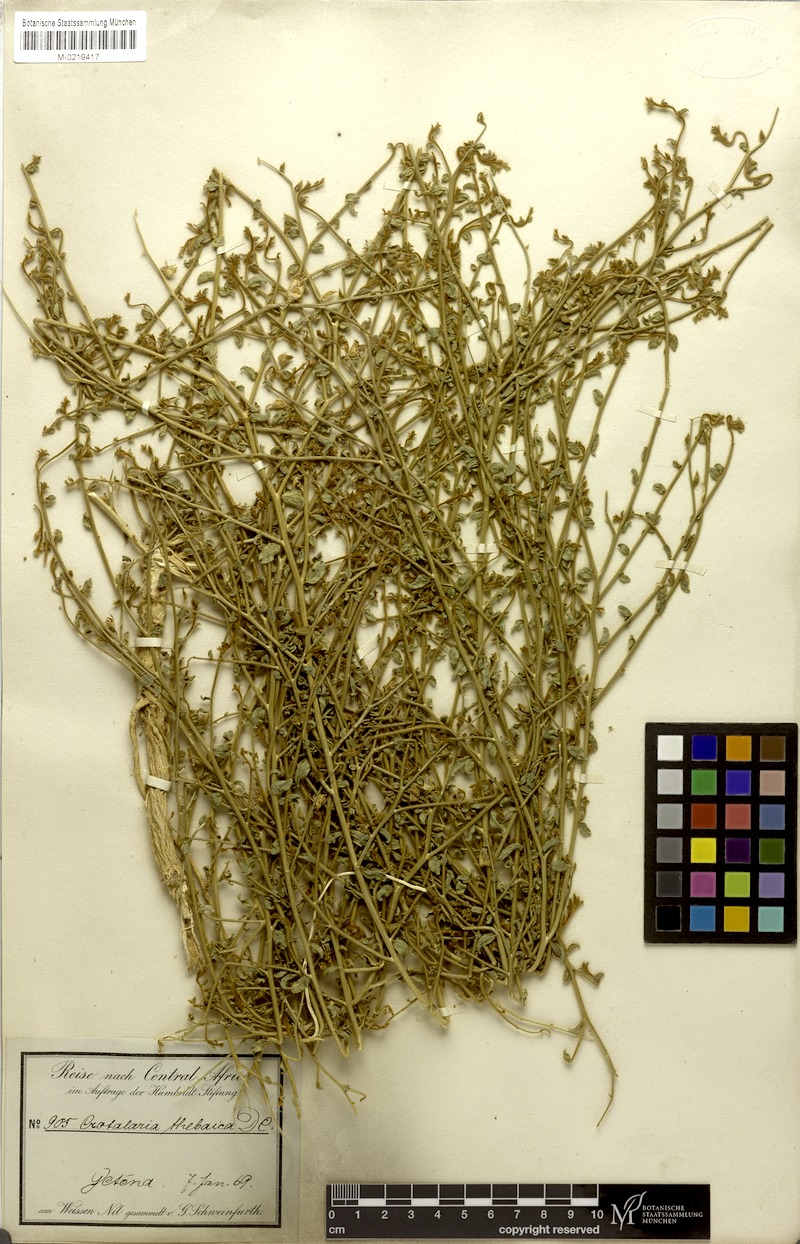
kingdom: Plantae
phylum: Tracheophyta
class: Magnoliopsida
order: Fabales
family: Fabaceae
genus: Crotalaria
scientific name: Crotalaria thebaica
